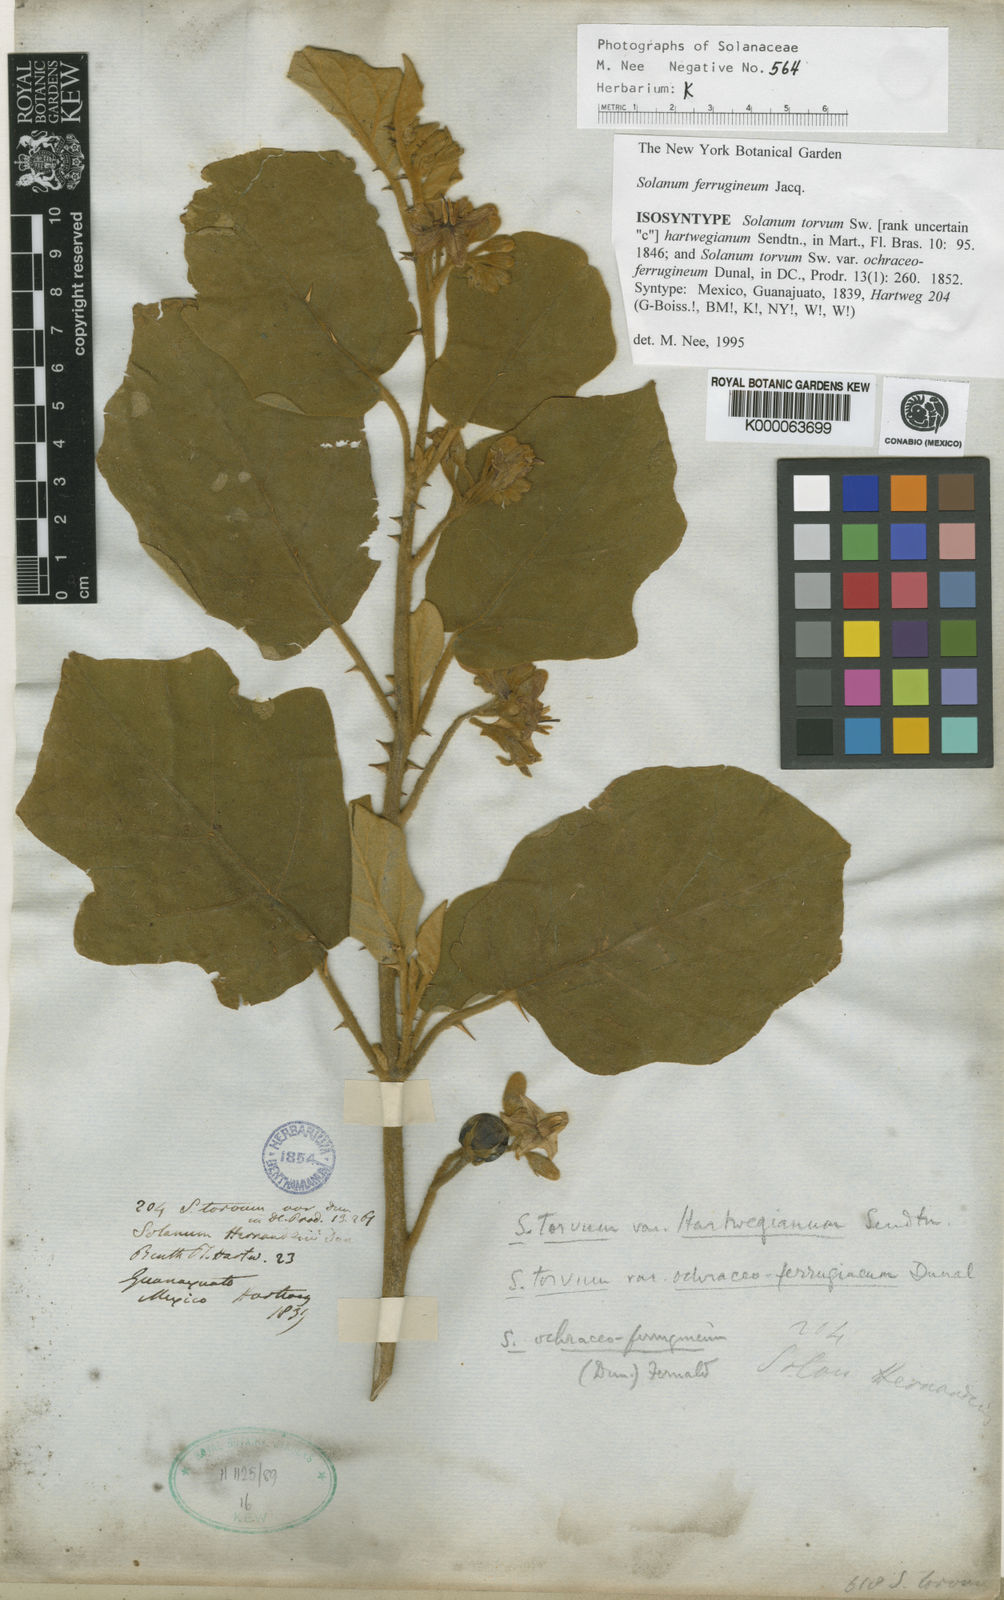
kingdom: Plantae
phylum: Tracheophyta
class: Magnoliopsida
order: Solanales
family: Solanaceae
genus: Solanum
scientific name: Solanum
